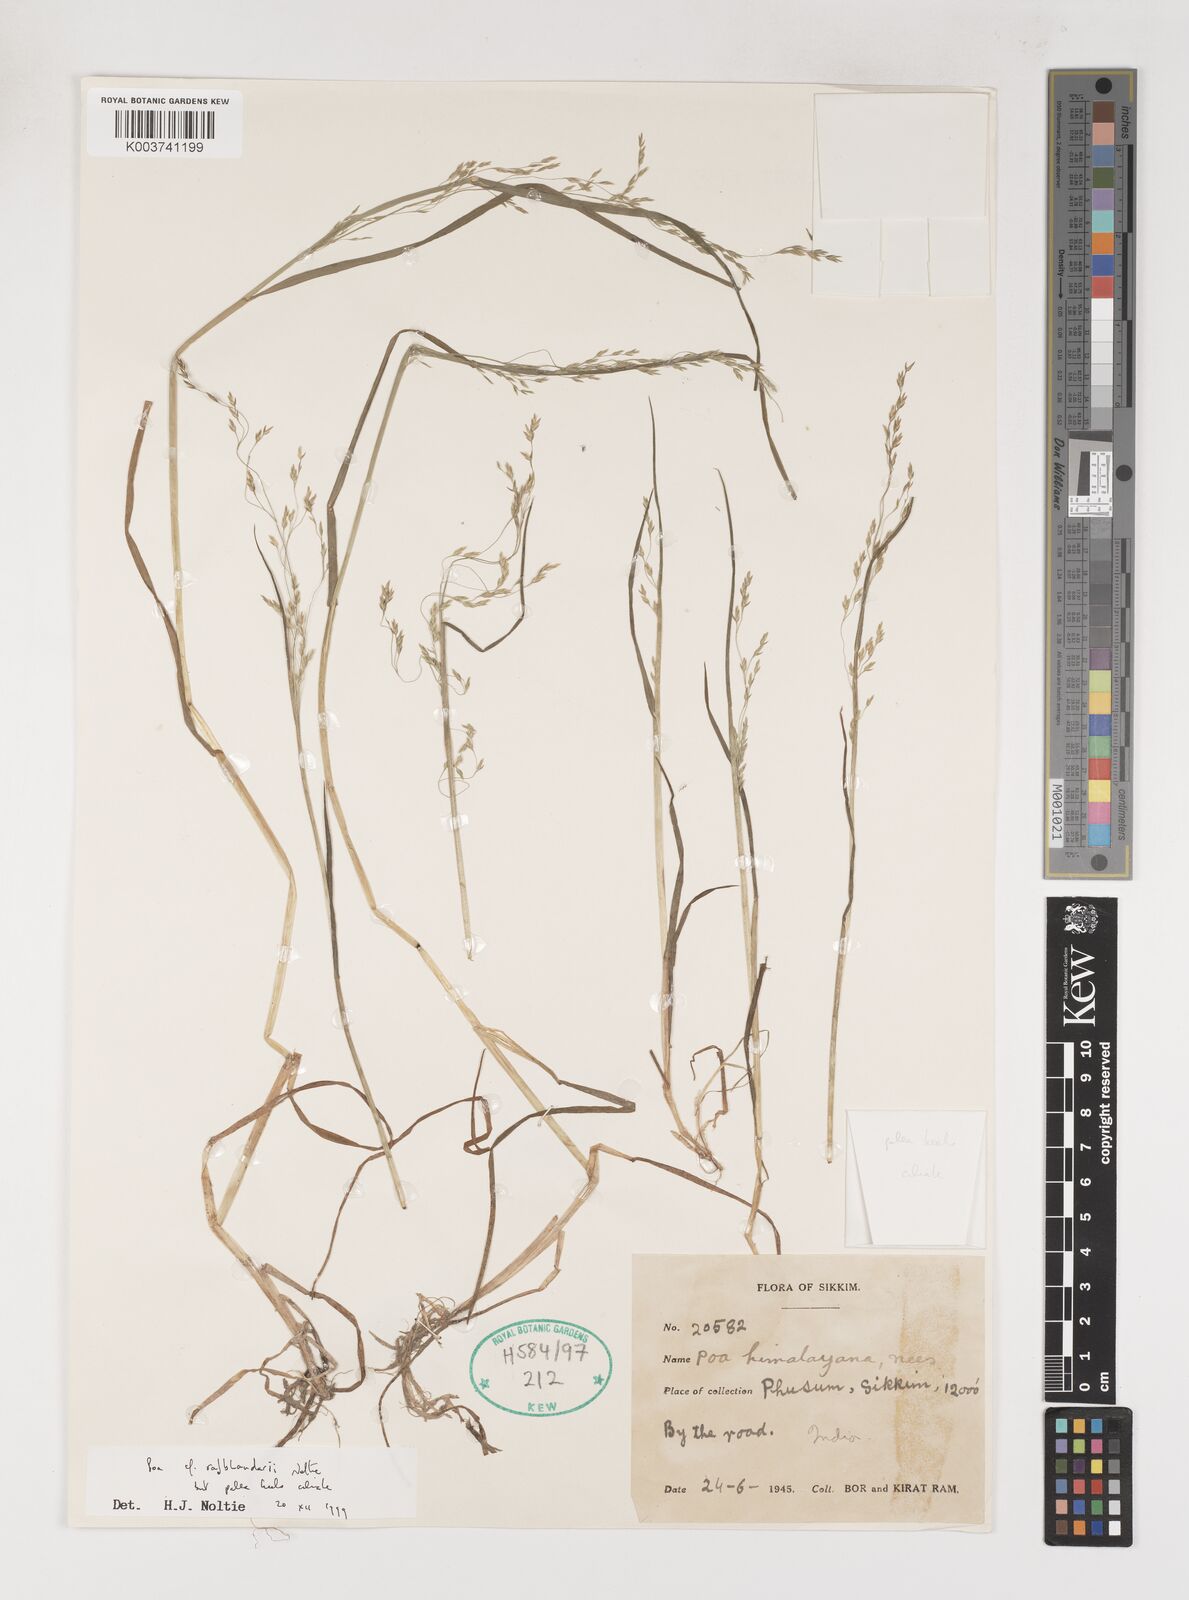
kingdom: Plantae
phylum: Tracheophyta
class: Liliopsida
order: Poales
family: Poaceae
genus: Poa
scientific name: Poa rajbhandarii
